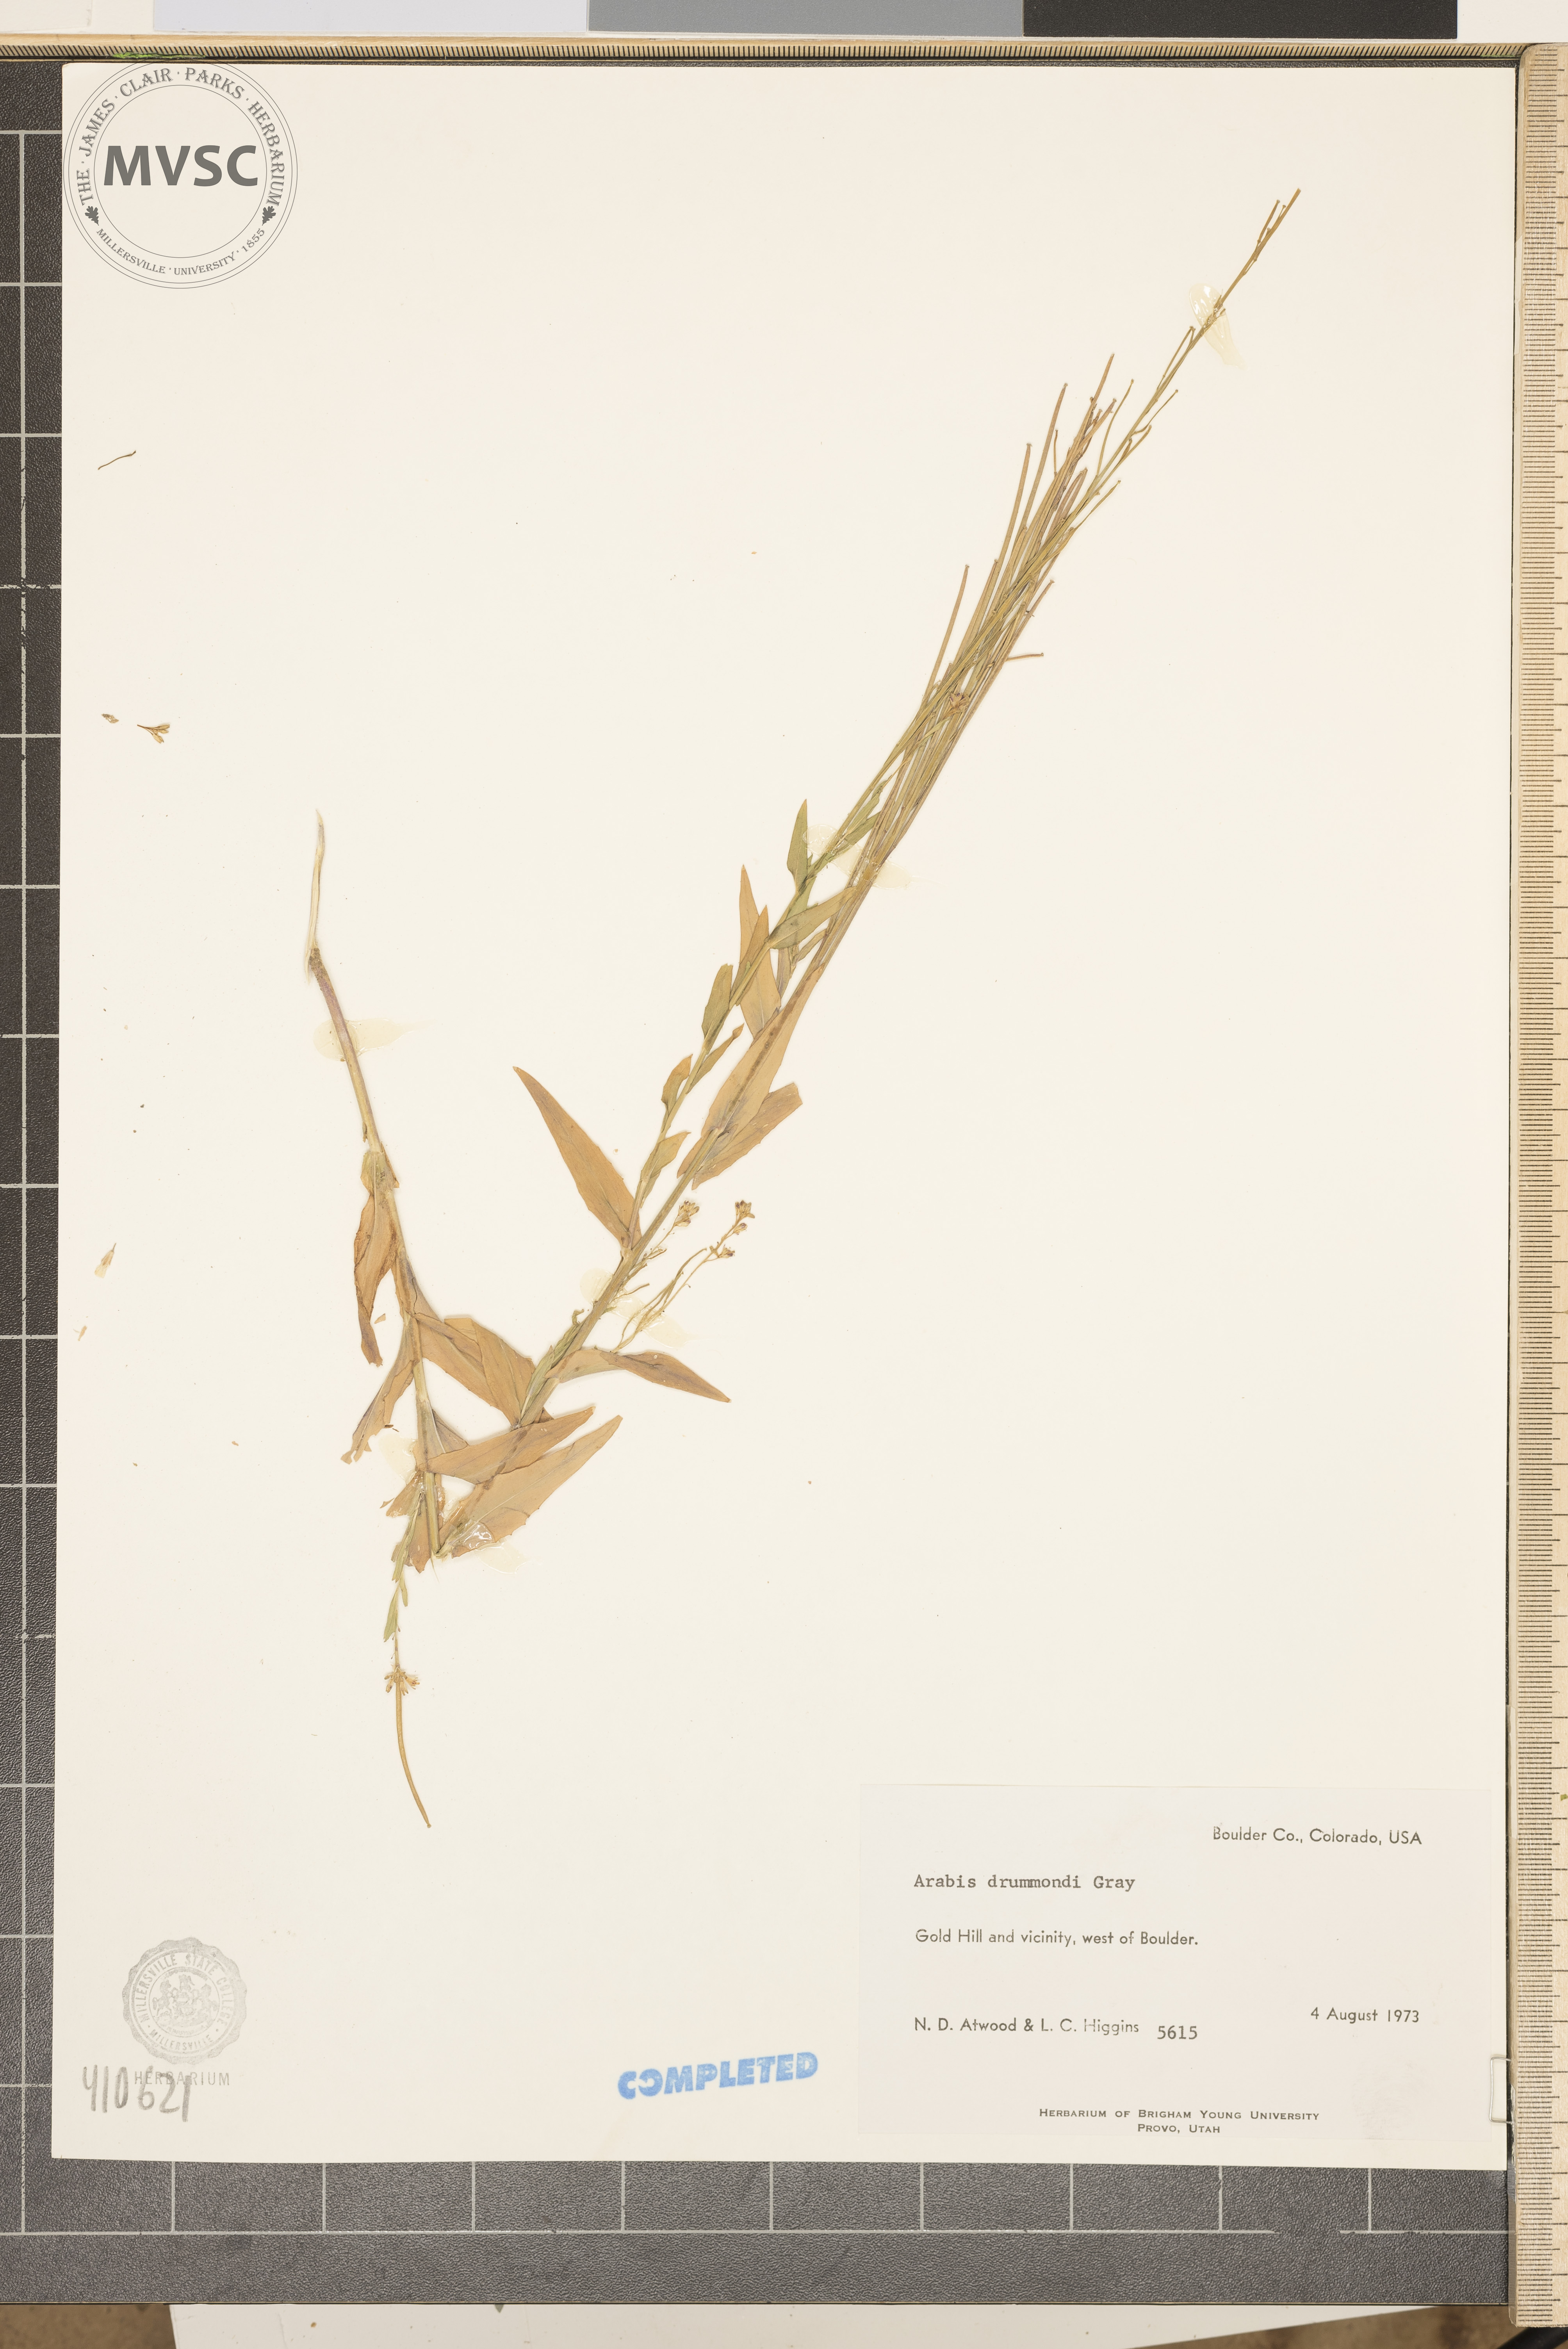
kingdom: Plantae
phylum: Tracheophyta
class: Magnoliopsida
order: Brassicales
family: Brassicaceae
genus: Boechera
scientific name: Boechera stricta
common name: Canadian rockcress
